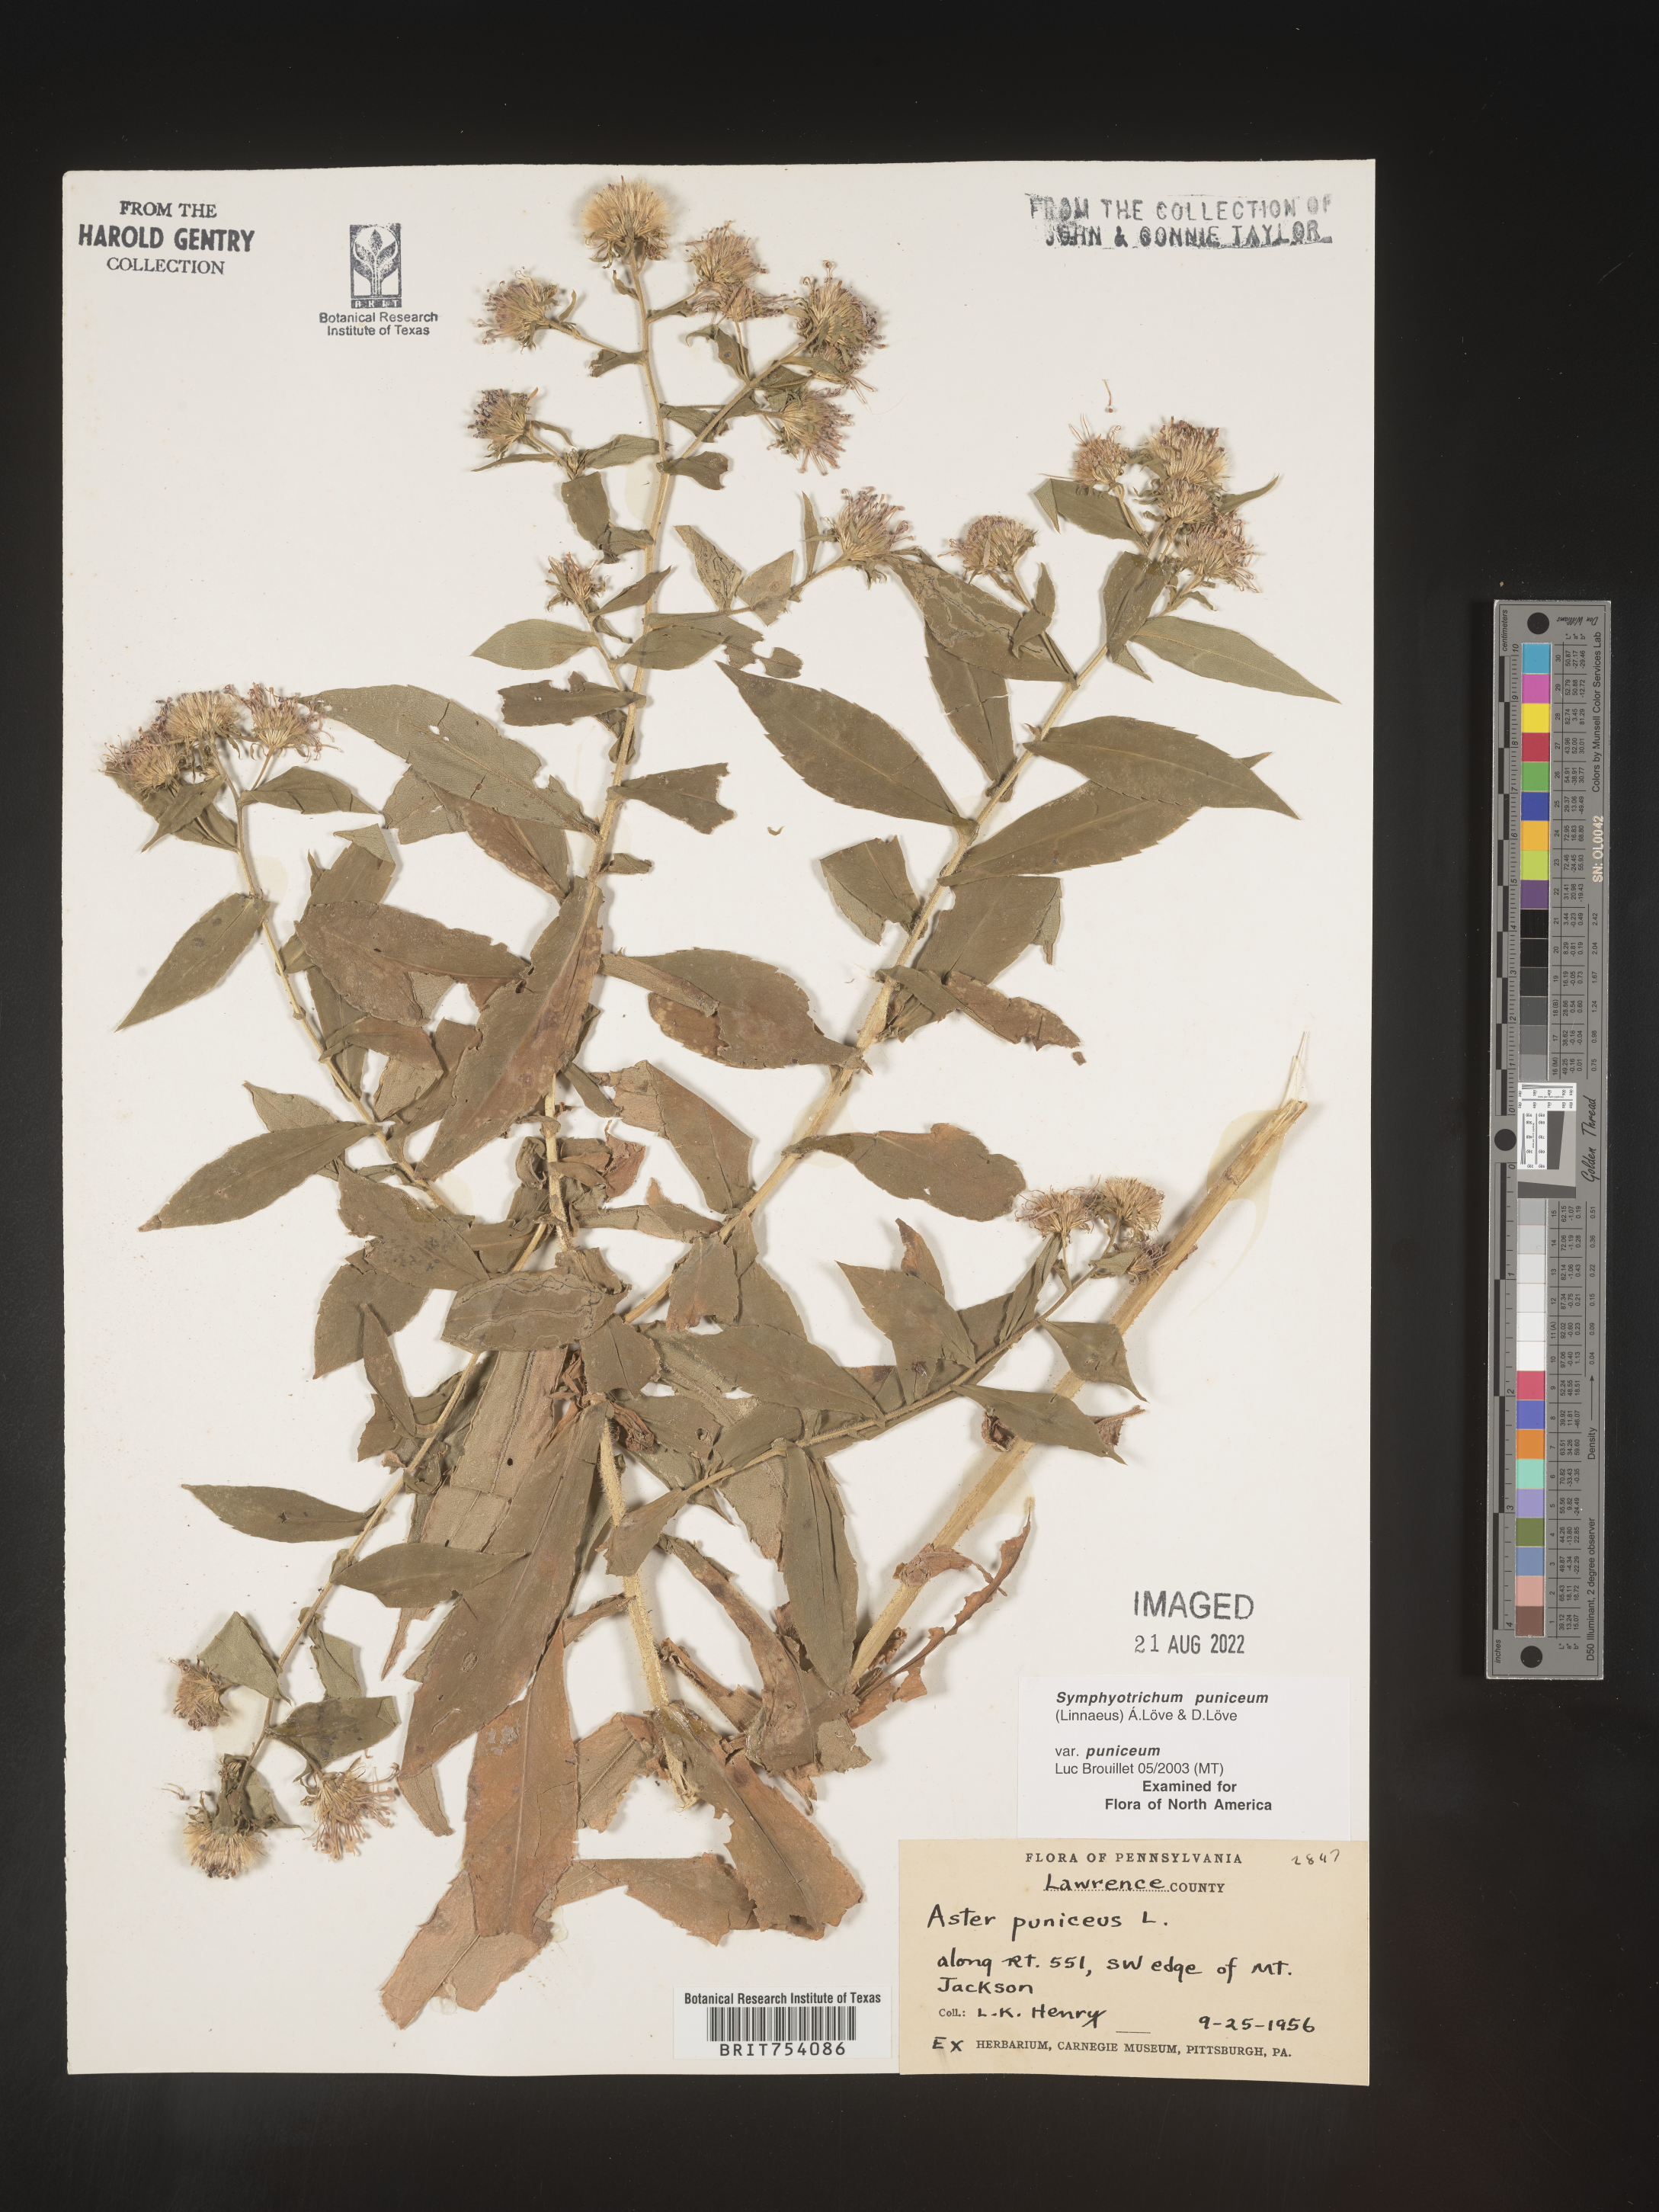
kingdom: Plantae
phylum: Tracheophyta
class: Magnoliopsida
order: Asterales
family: Asteraceae
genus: Symphyotrichum
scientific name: Symphyotrichum puniceum
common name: Bog aster
